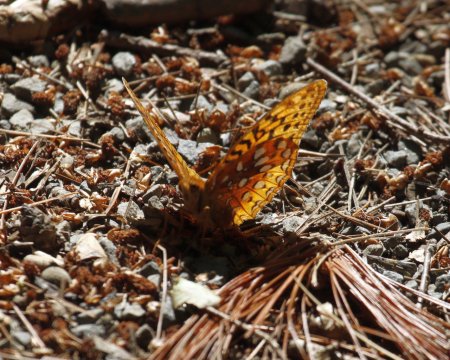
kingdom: Animalia
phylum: Arthropoda
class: Insecta
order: Lepidoptera
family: Nymphalidae
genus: Speyeria
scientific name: Speyeria cybele
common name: Great Spangled Fritillary
